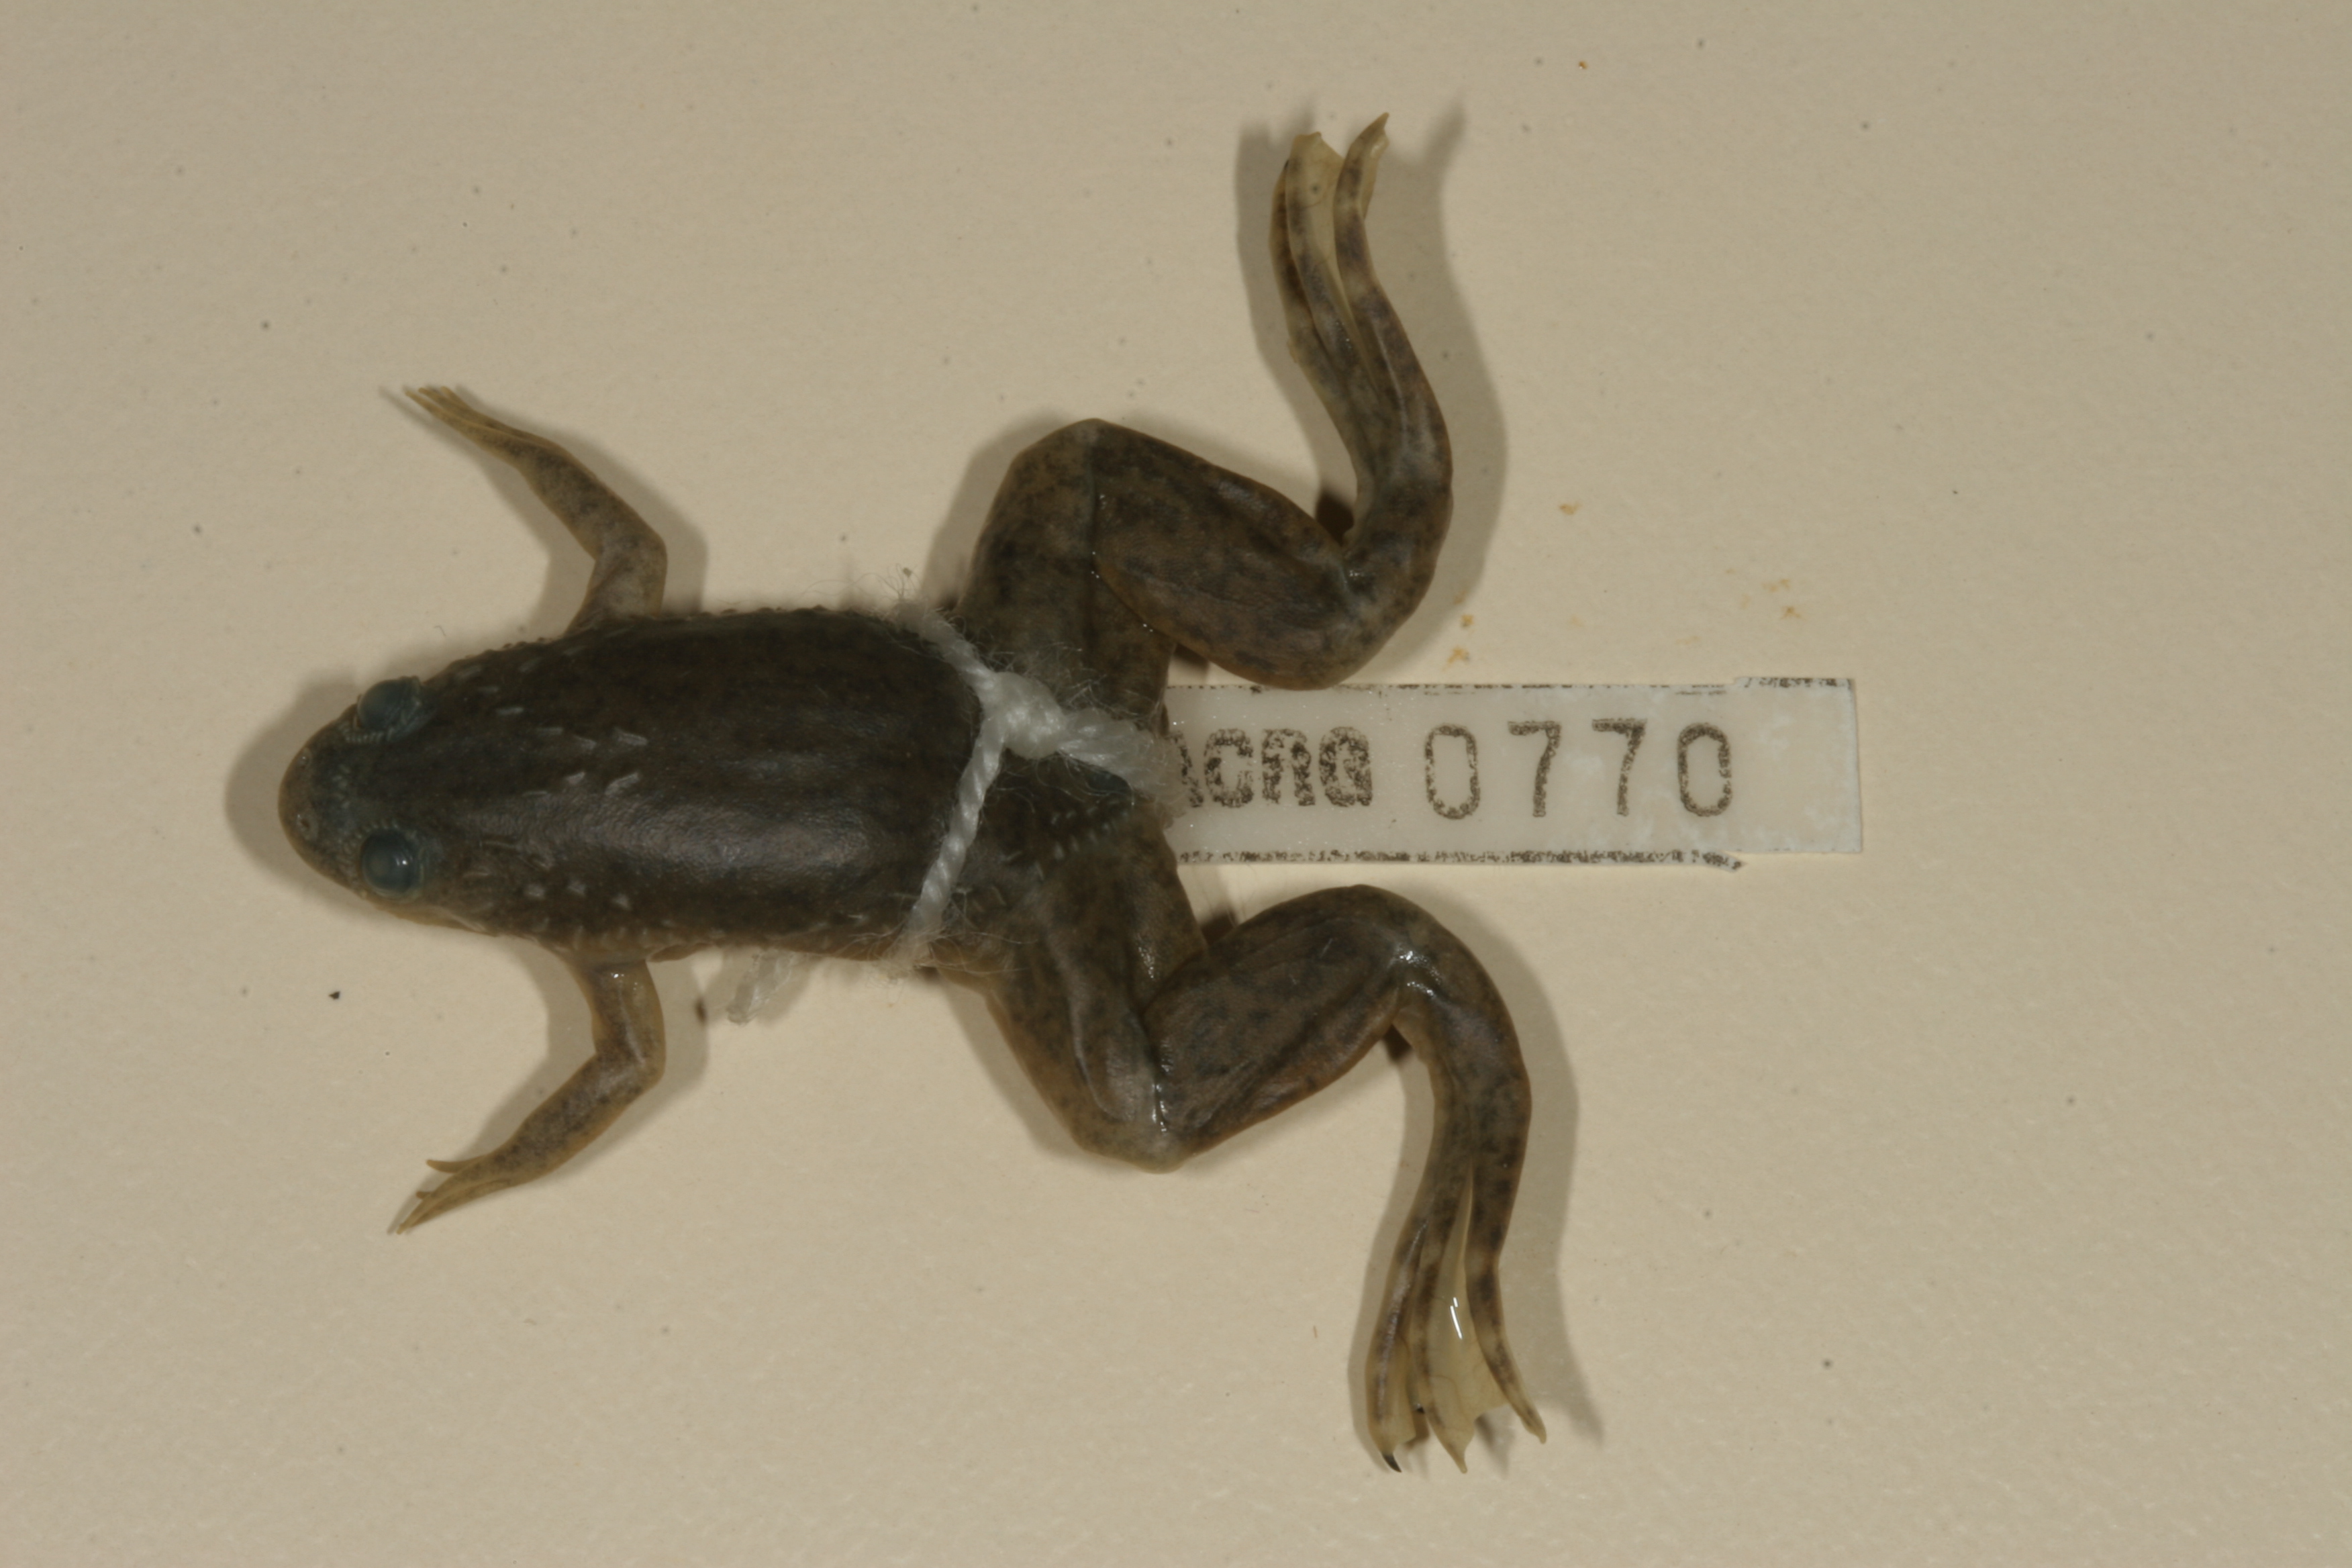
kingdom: Animalia
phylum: Chordata
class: Amphibia
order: Anura
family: Pipidae
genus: Xenopus
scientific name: Xenopus laevis
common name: African clawed frog
